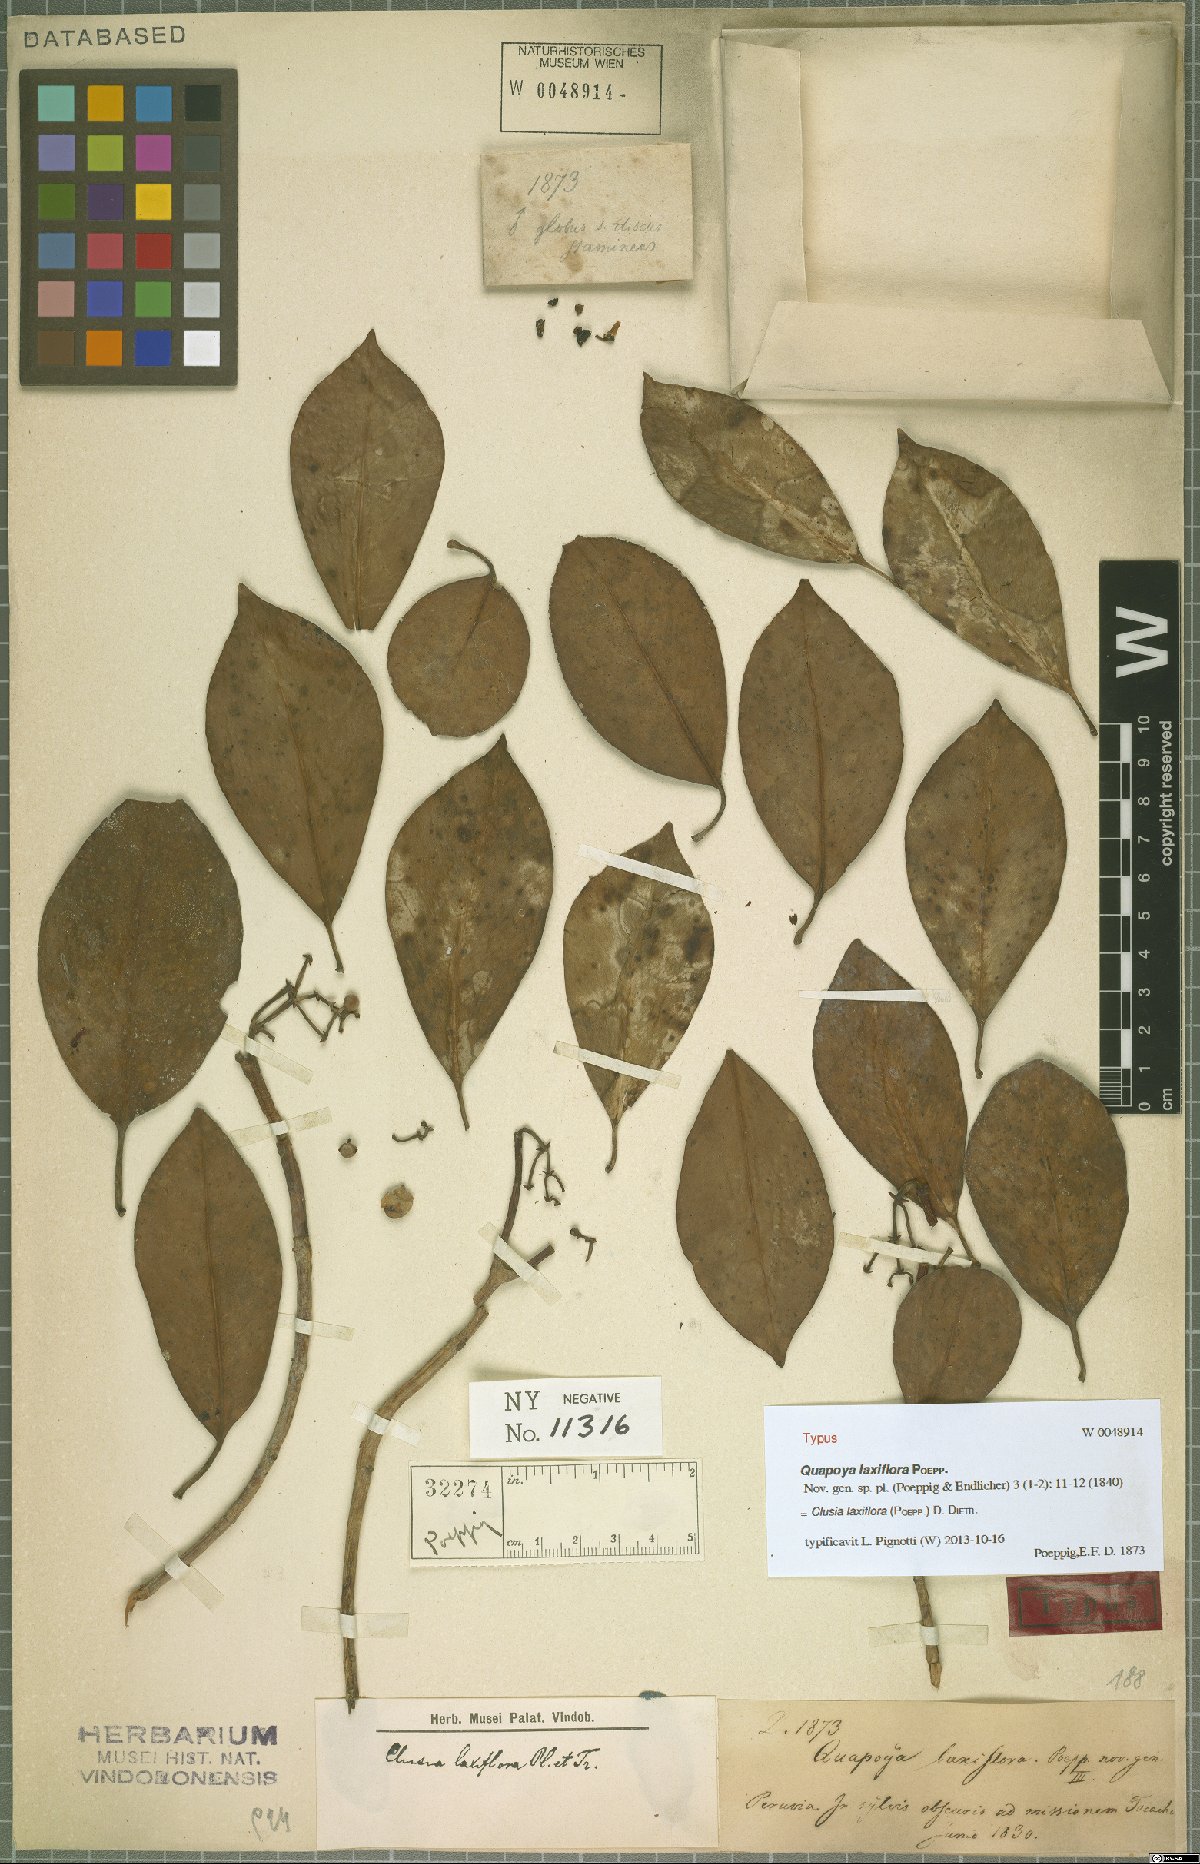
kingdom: Plantae
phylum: Tracheophyta
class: Magnoliopsida
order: Malpighiales
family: Clusiaceae
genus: Clusia
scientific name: Clusia laxiflora
